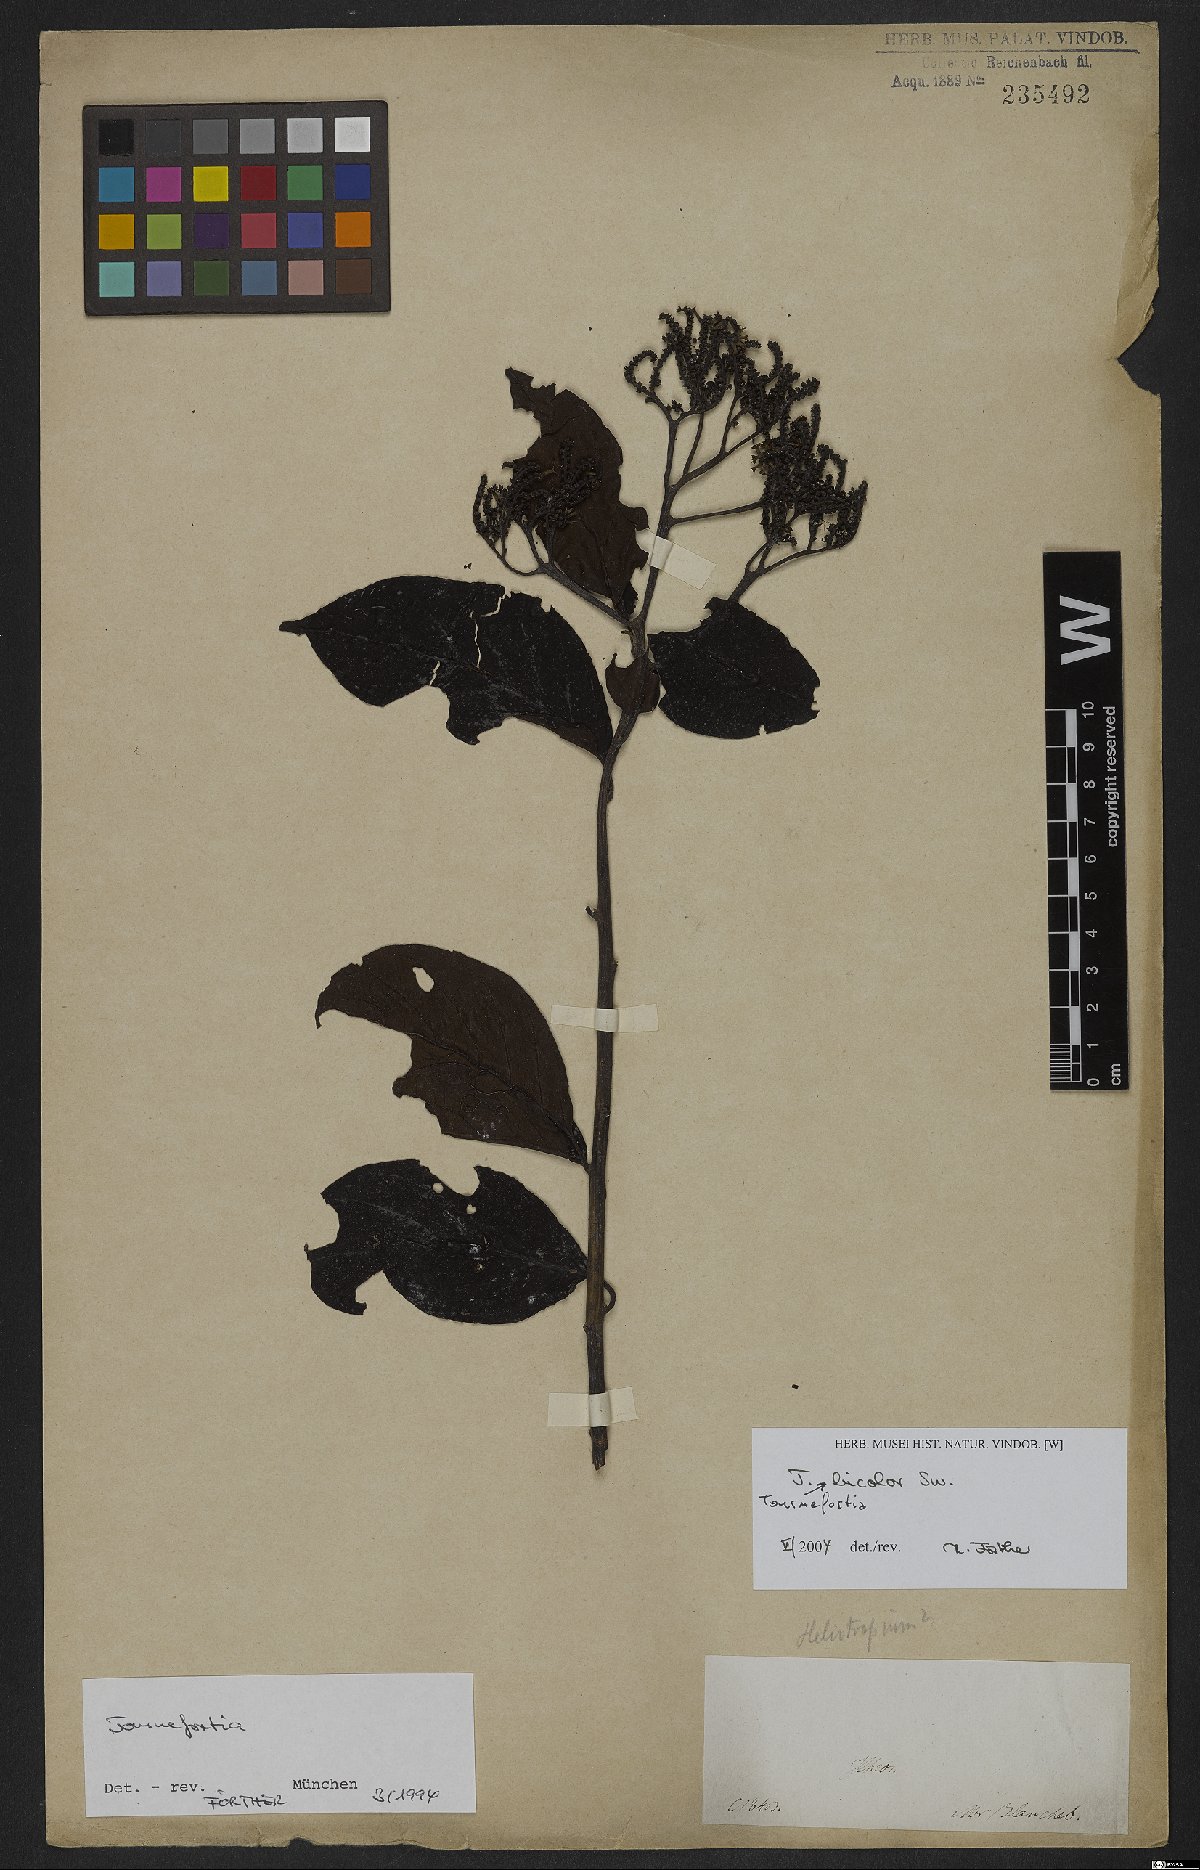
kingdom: Plantae
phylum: Tracheophyta
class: Magnoliopsida
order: Boraginales
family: Heliotropiaceae
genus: Heliotropium
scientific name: Heliotropium verdcourtii
